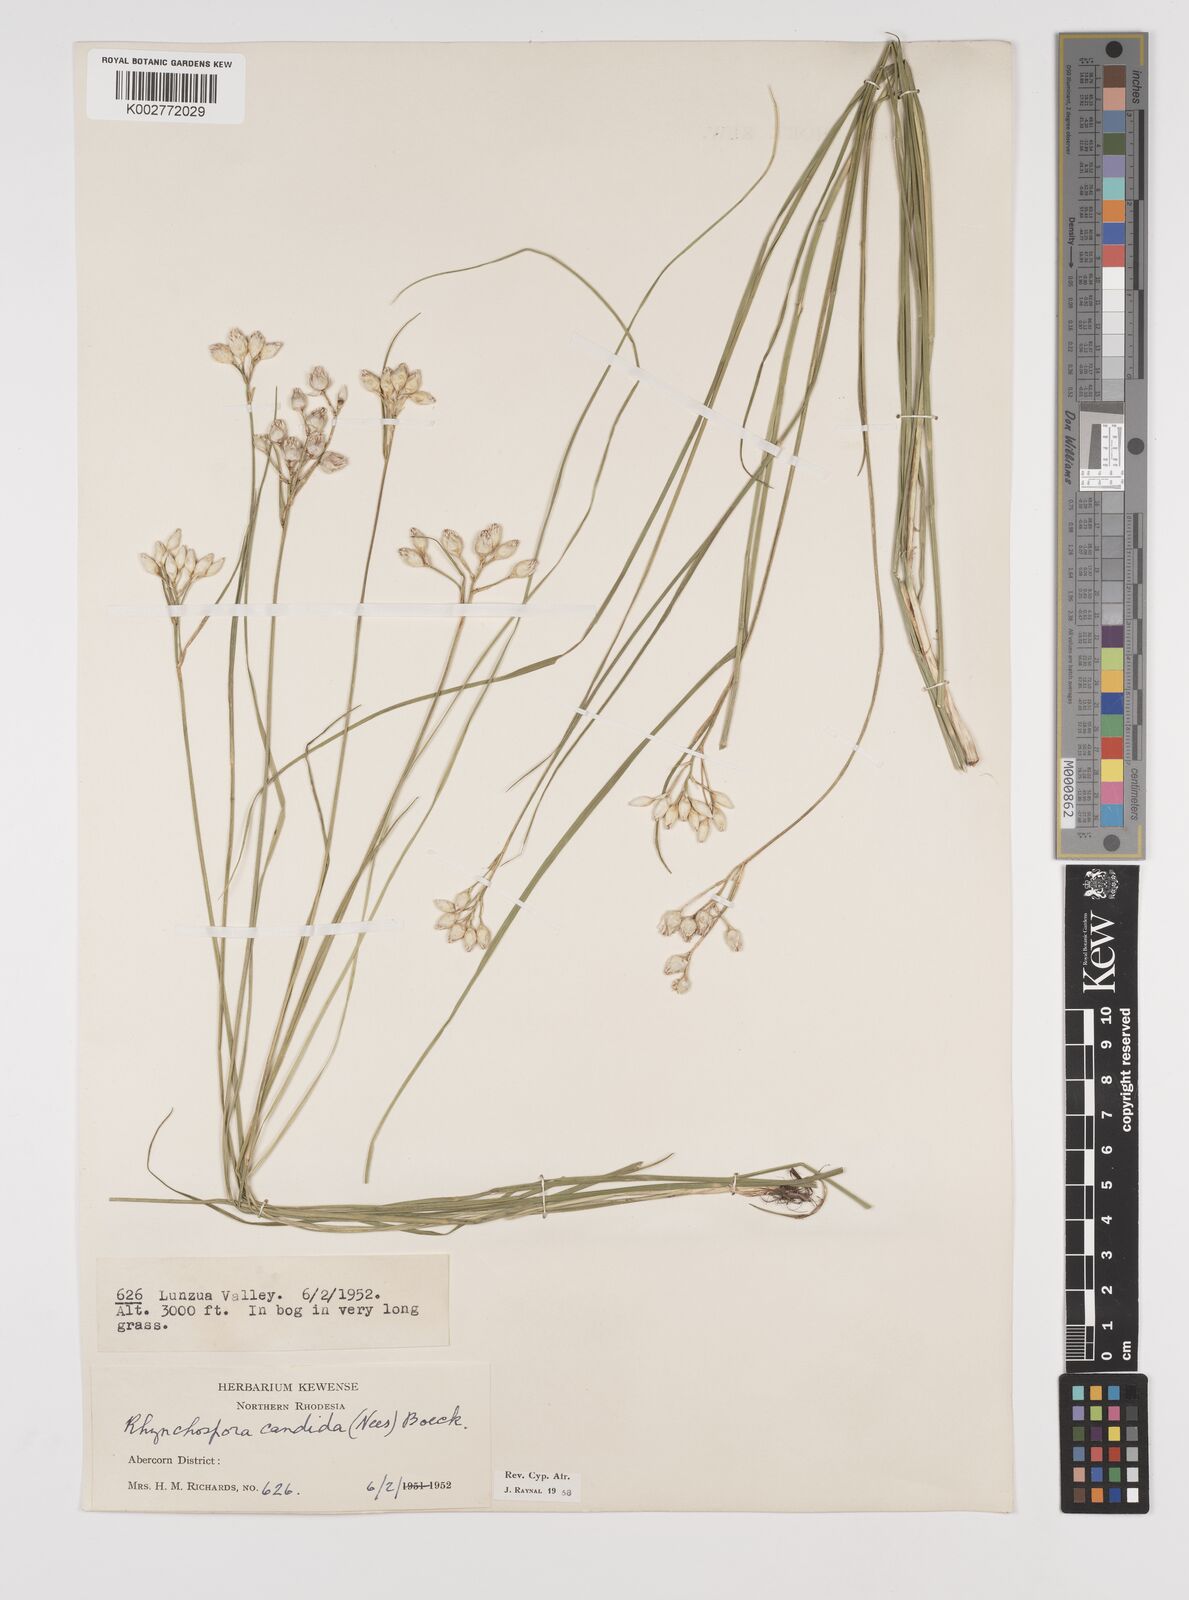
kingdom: Plantae
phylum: Tracheophyta
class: Liliopsida
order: Poales
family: Cyperaceae
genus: Rhynchospora
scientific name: Rhynchospora candida
